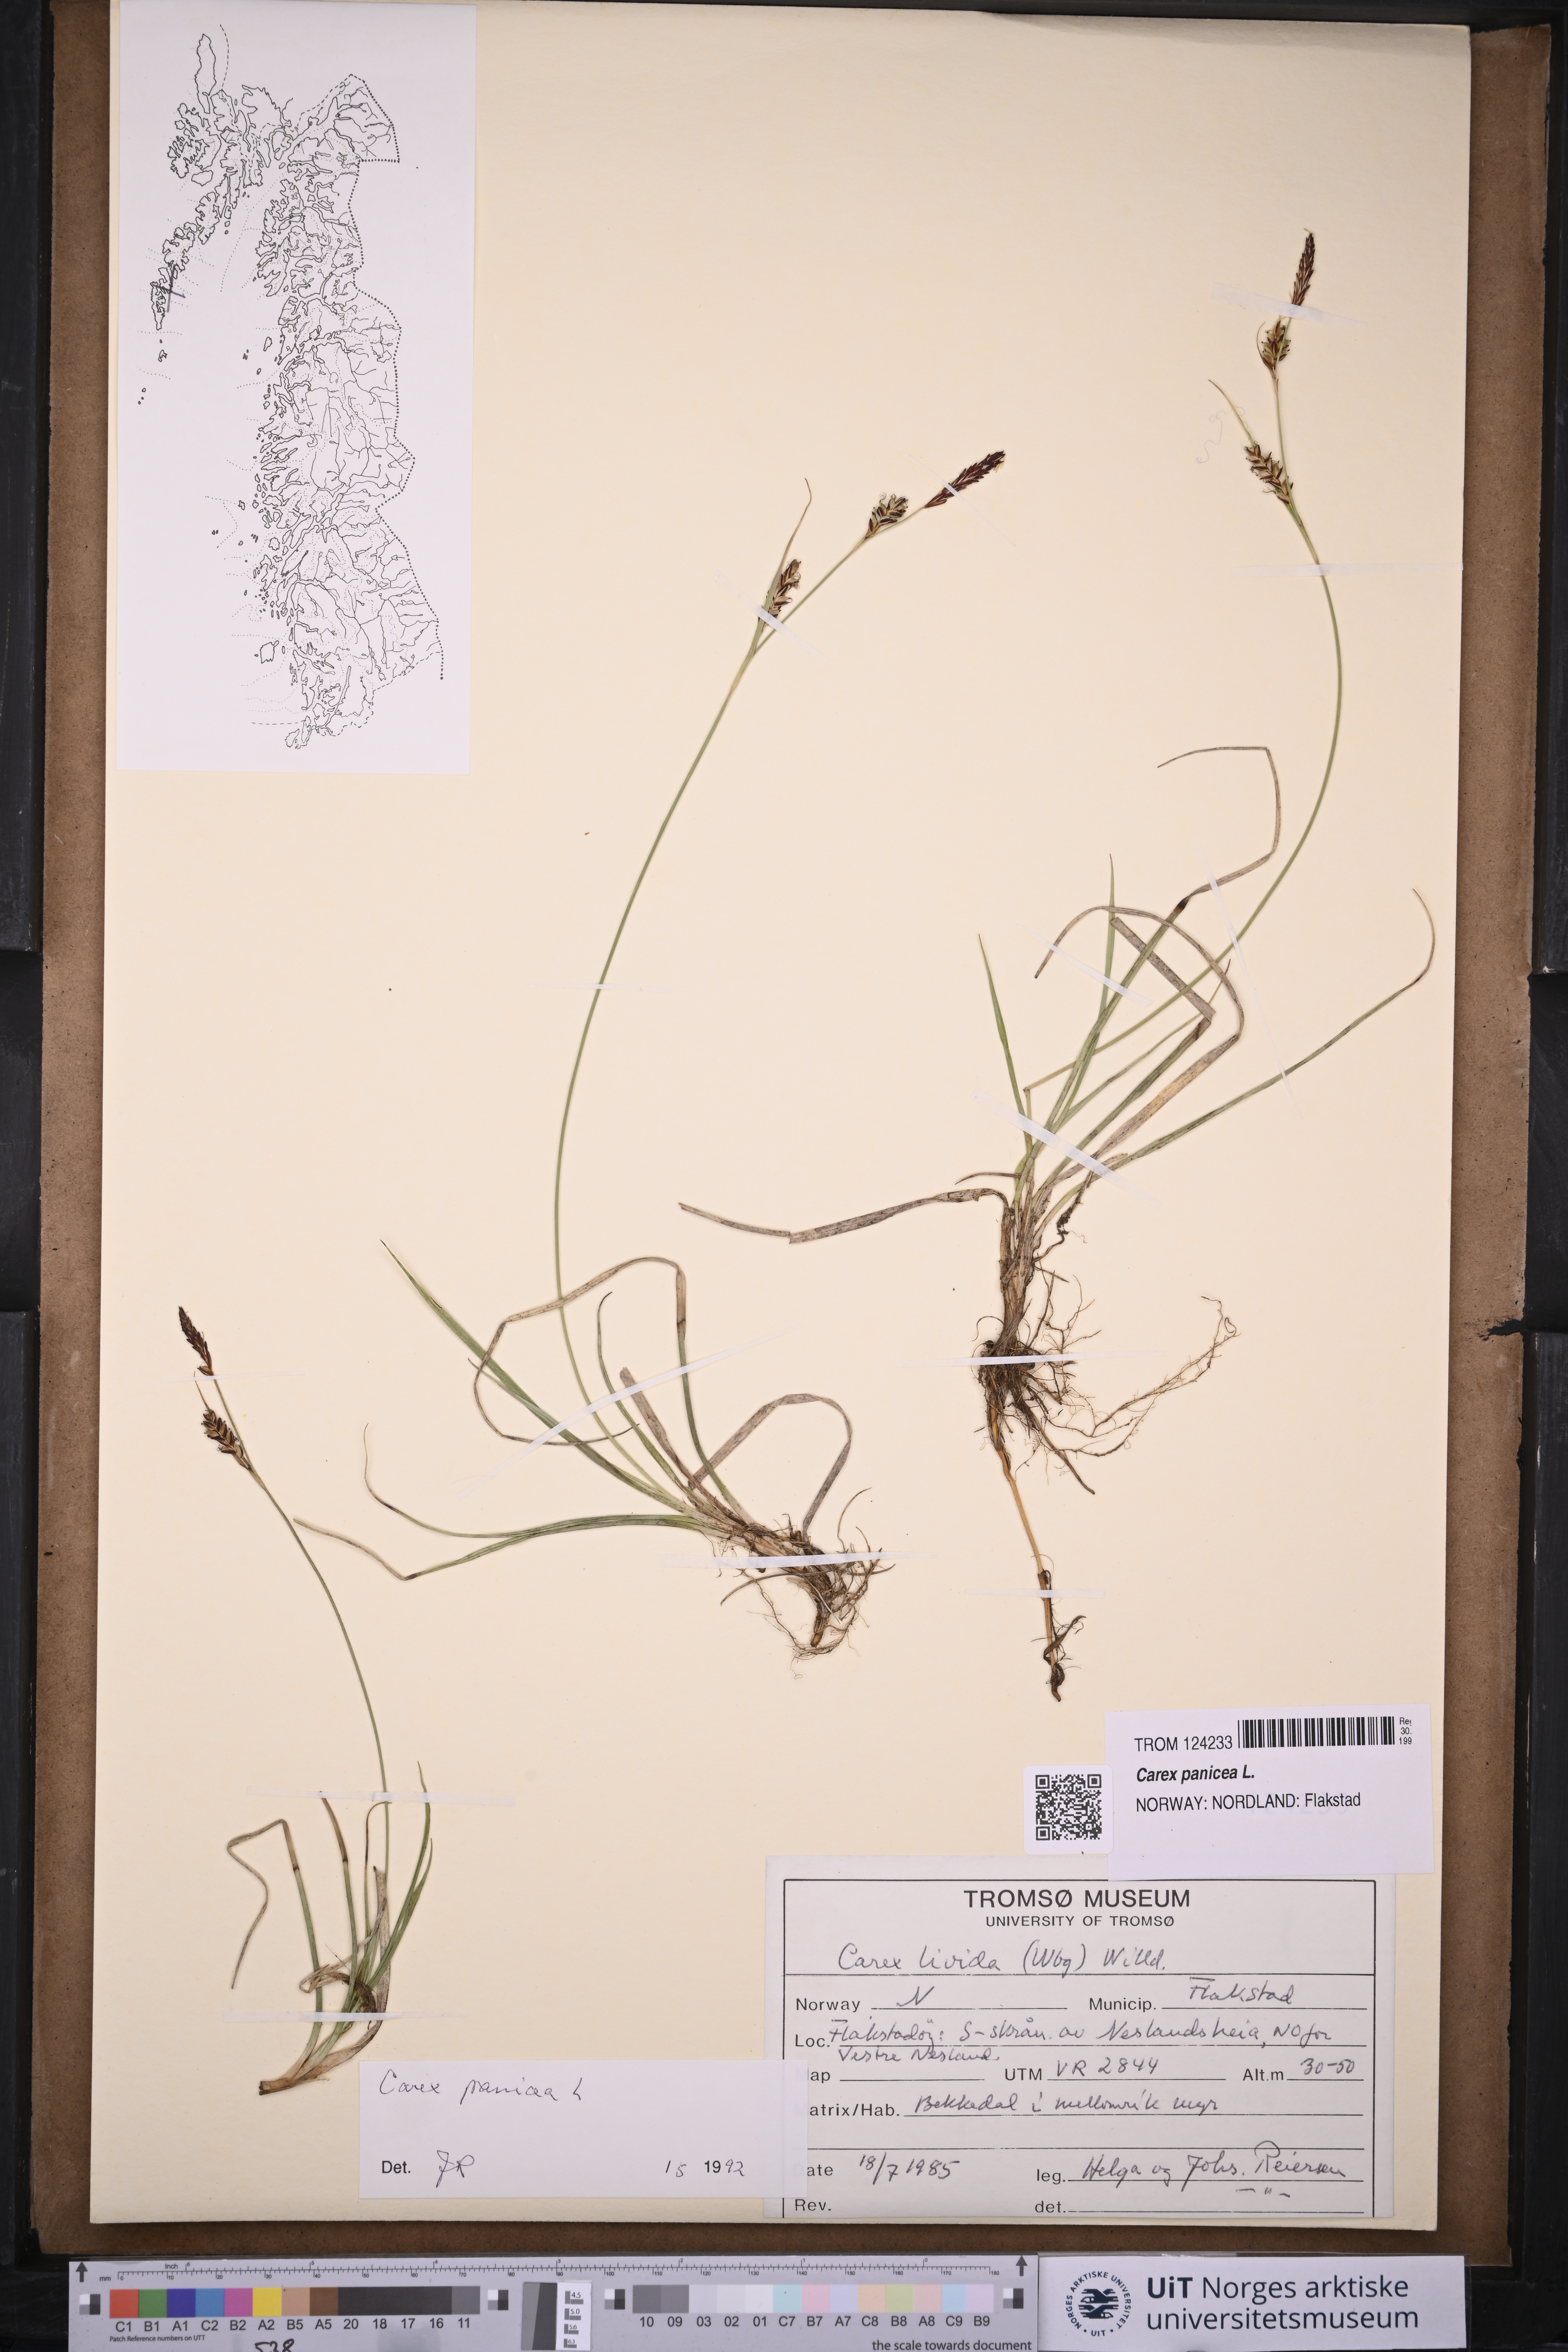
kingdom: Plantae
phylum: Tracheophyta
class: Liliopsida
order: Poales
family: Cyperaceae
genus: Carex
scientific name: Carex panicea
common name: Carnation sedge
